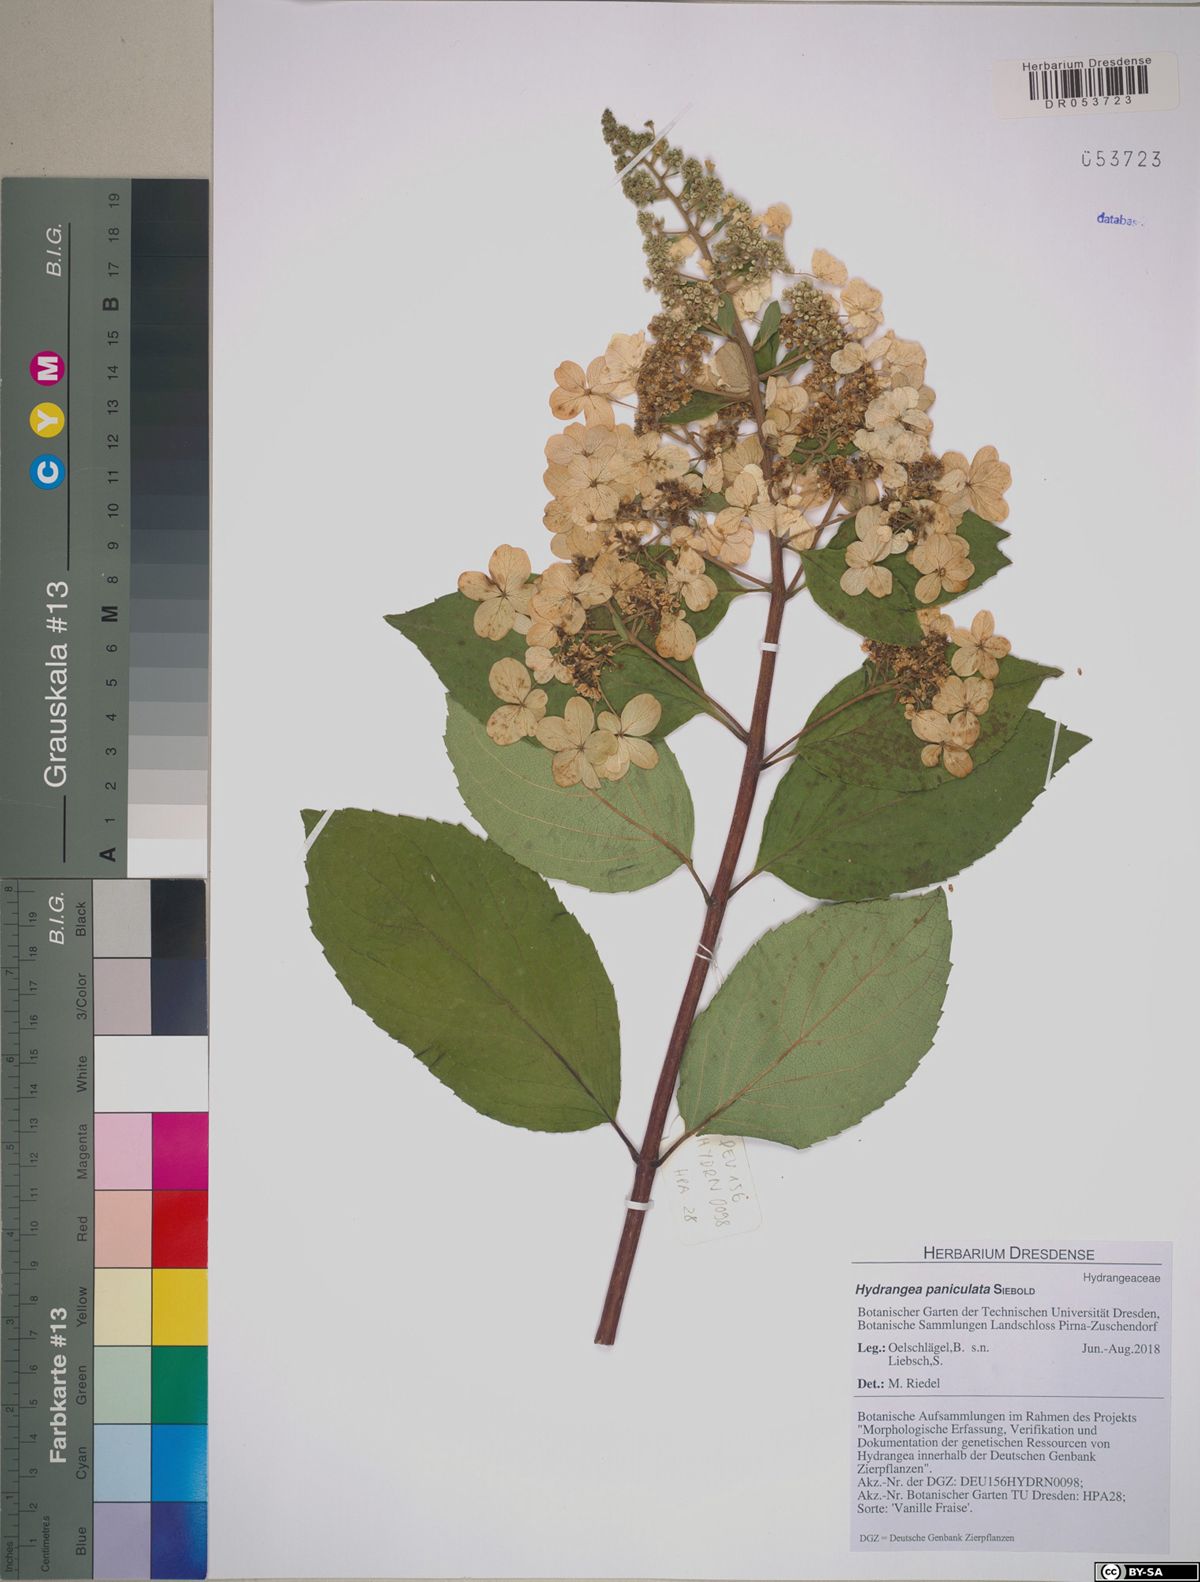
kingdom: Plantae
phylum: Tracheophyta
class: Magnoliopsida
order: Cornales
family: Hydrangeaceae
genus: Hydrangea
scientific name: Hydrangea paniculata
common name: Panicled hydrangea
